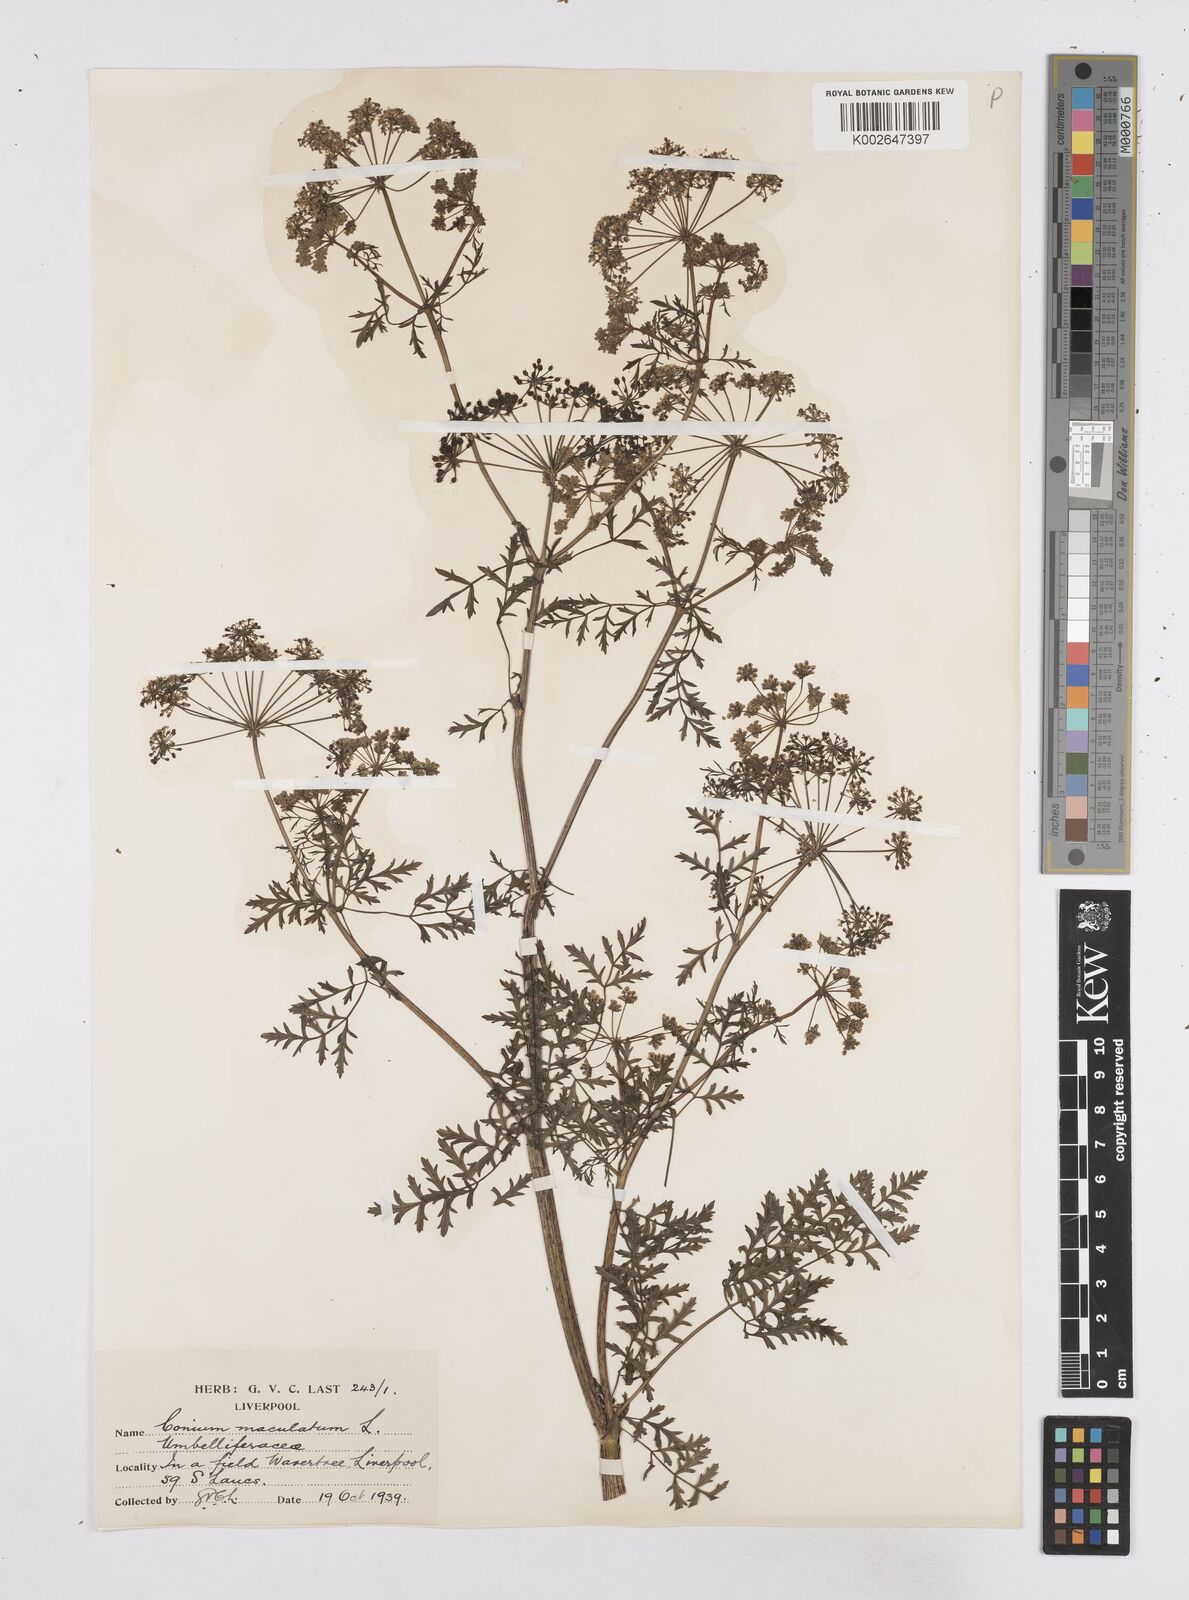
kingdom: Plantae
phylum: Tracheophyta
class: Magnoliopsida
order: Apiales
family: Apiaceae
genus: Conium
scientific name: Conium maculatum
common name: Hemlock
